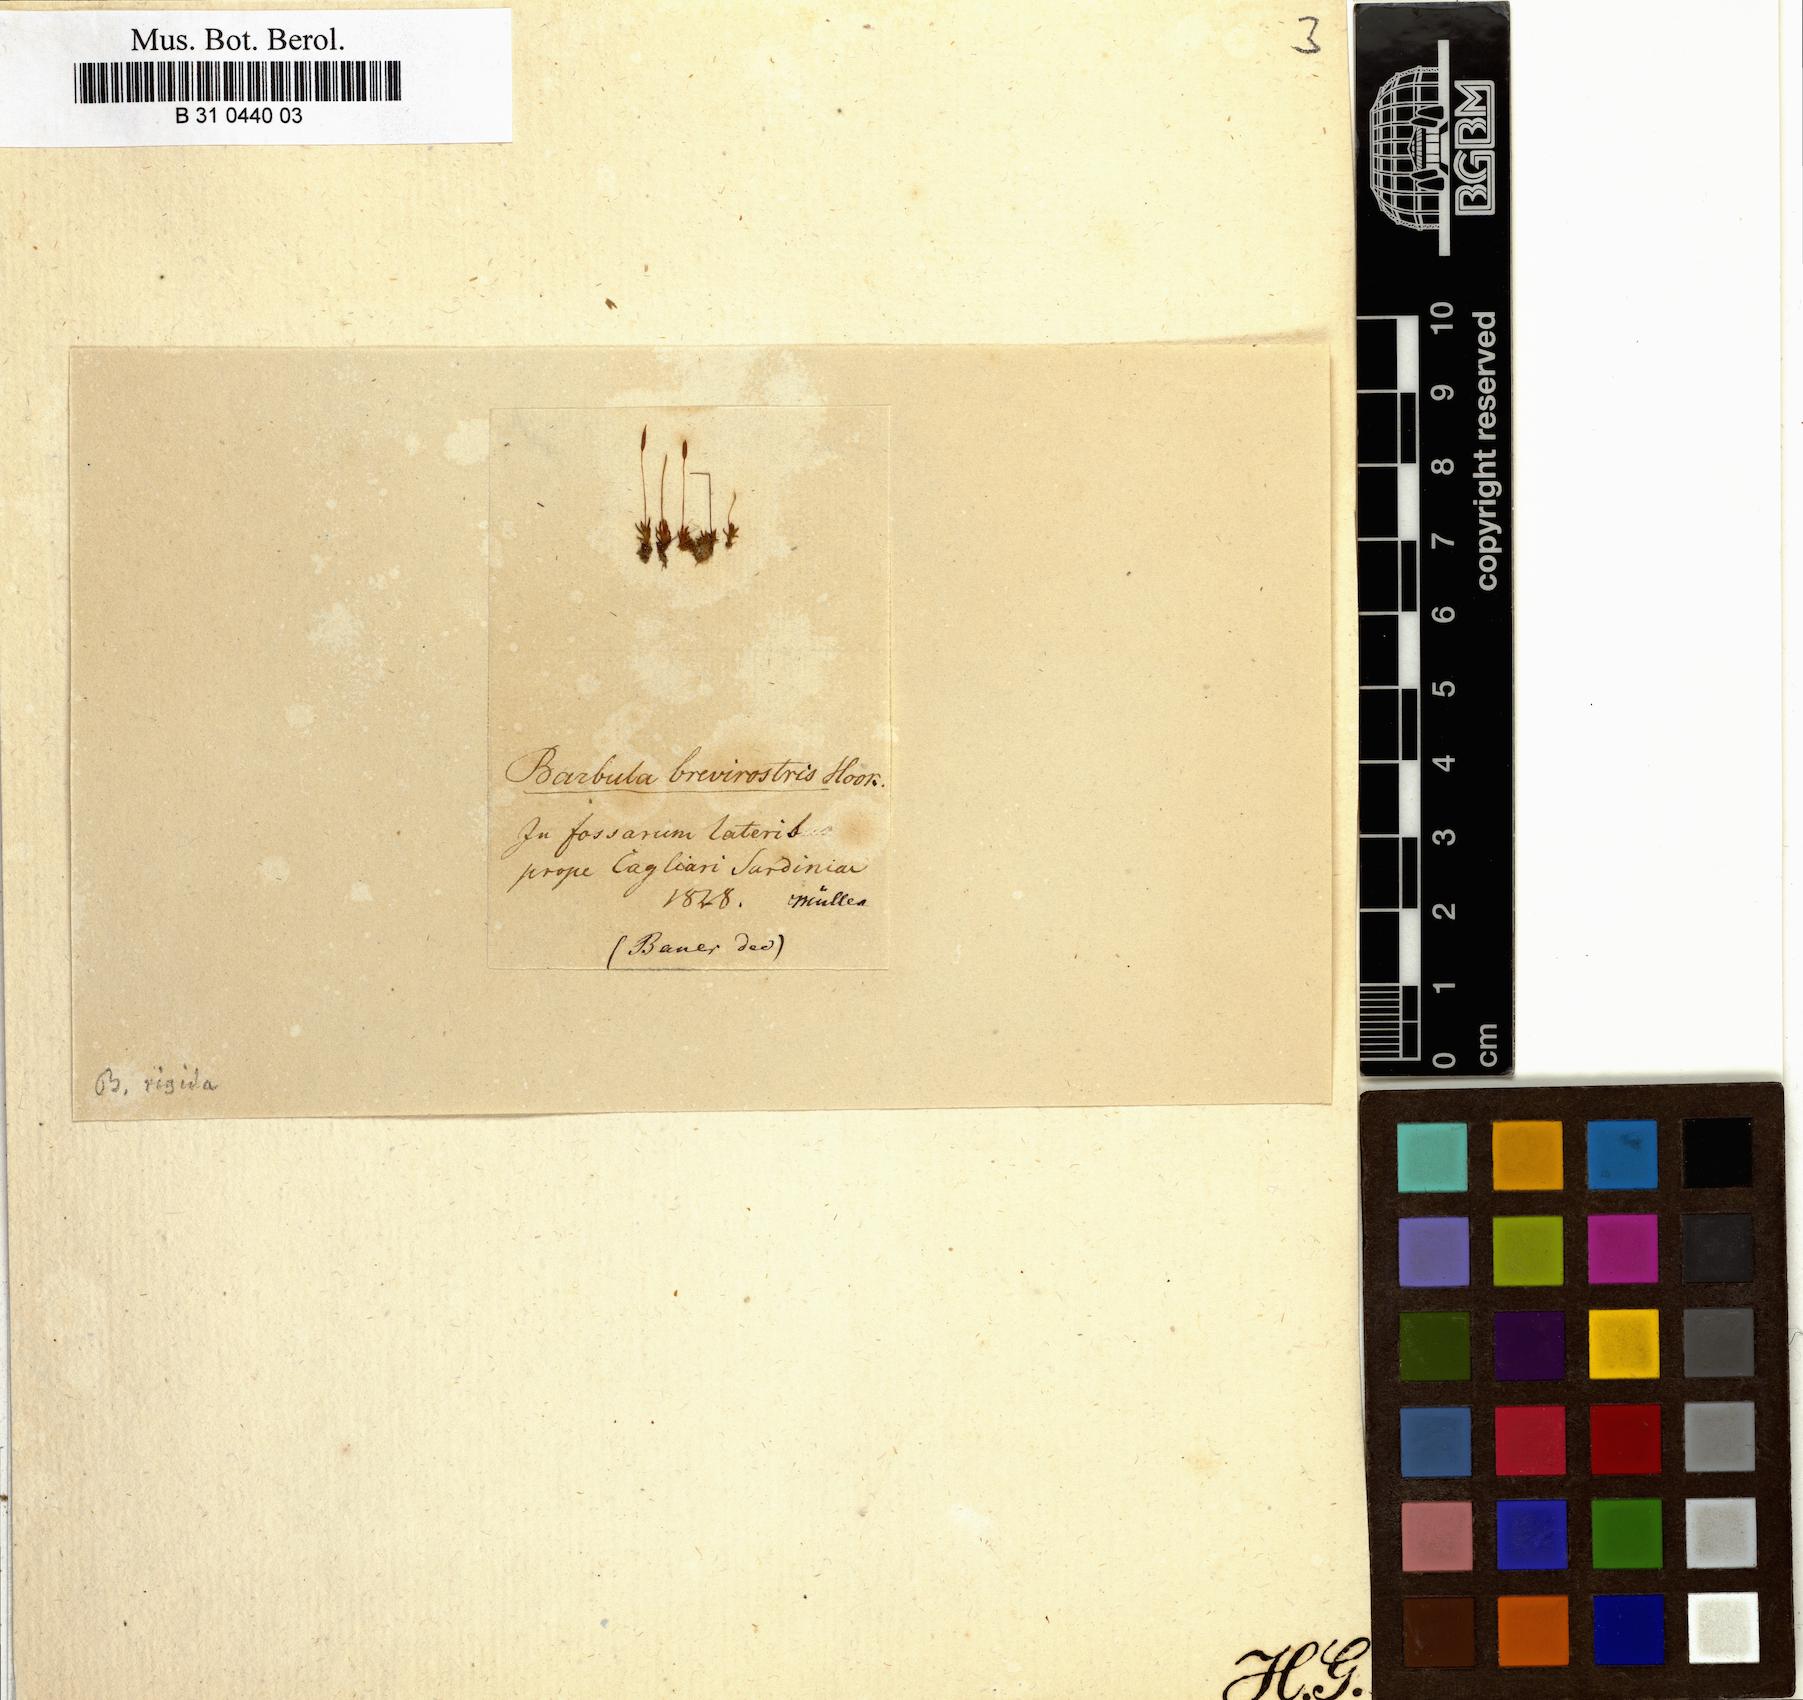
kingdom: Plantae
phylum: Bryophyta
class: Bryopsida
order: Pottiales
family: Pottiaceae
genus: Aloina
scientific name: Aloina rigida
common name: Rigid screw moss
